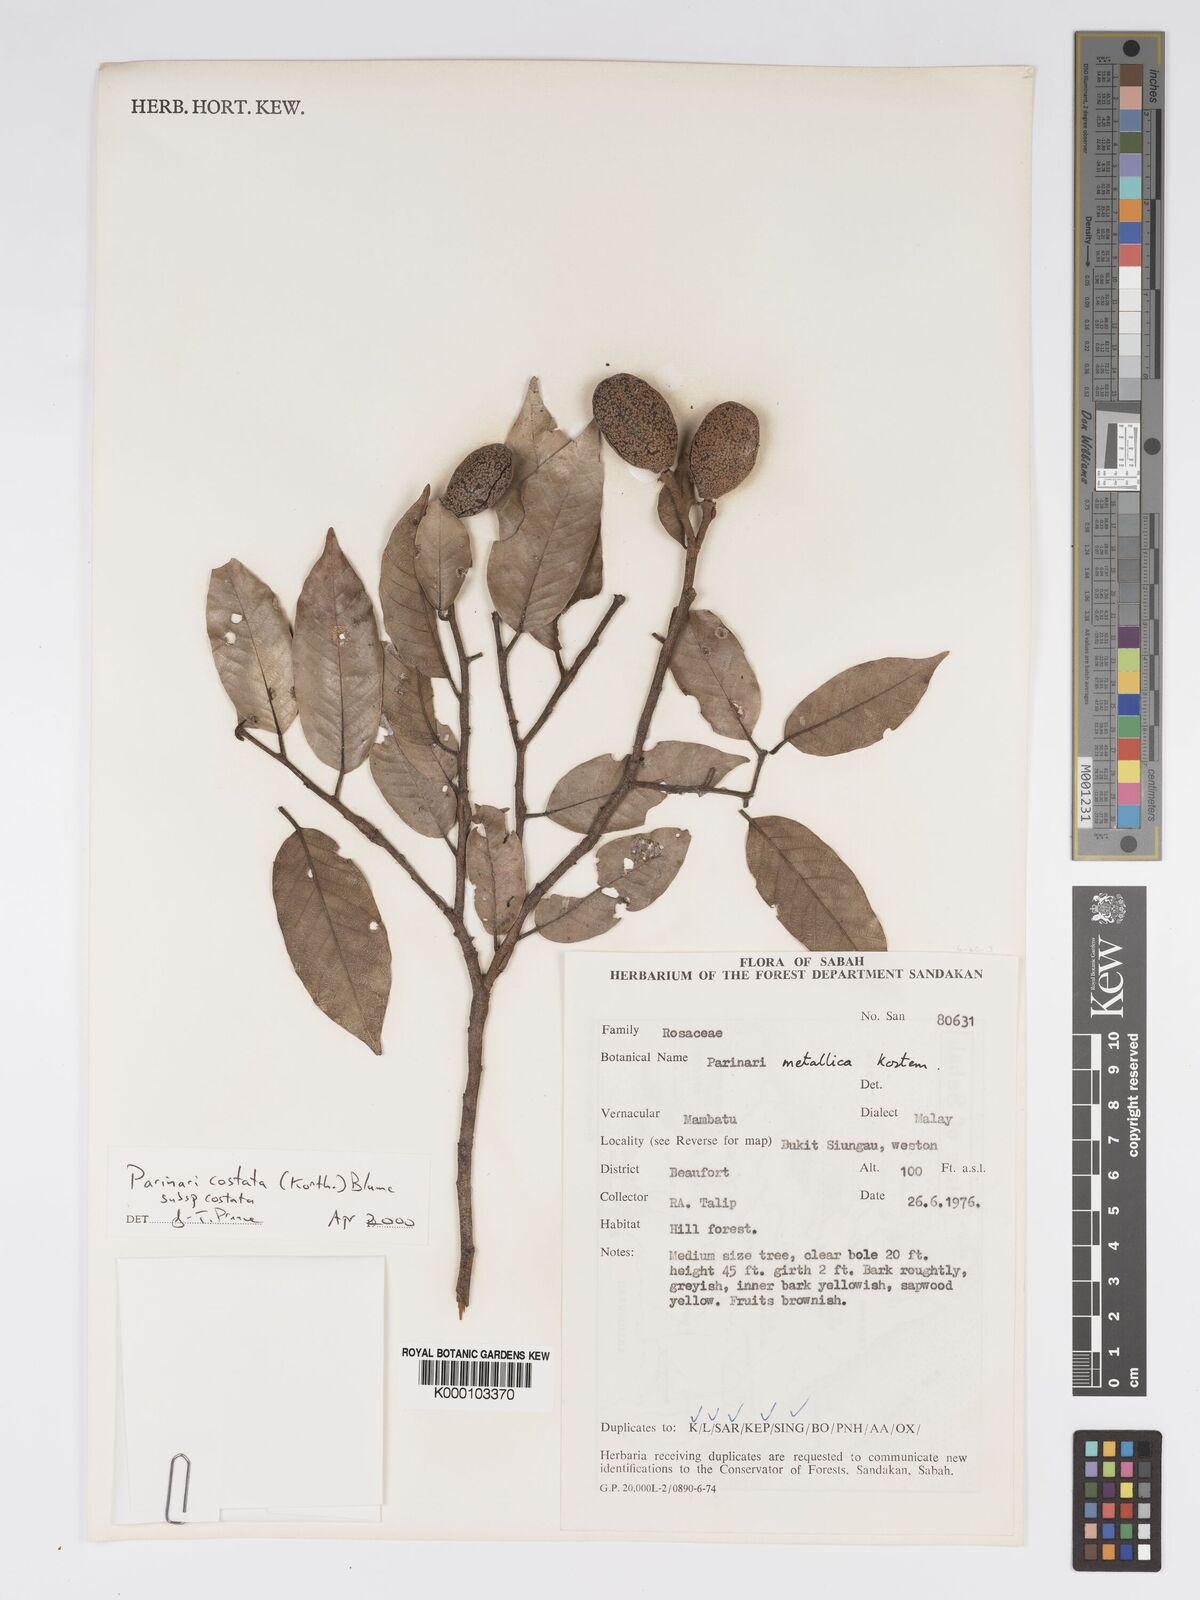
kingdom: Plantae
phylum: Tracheophyta
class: Magnoliopsida
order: Malpighiales
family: Chrysobalanaceae
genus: Parinari
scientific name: Parinari costata
